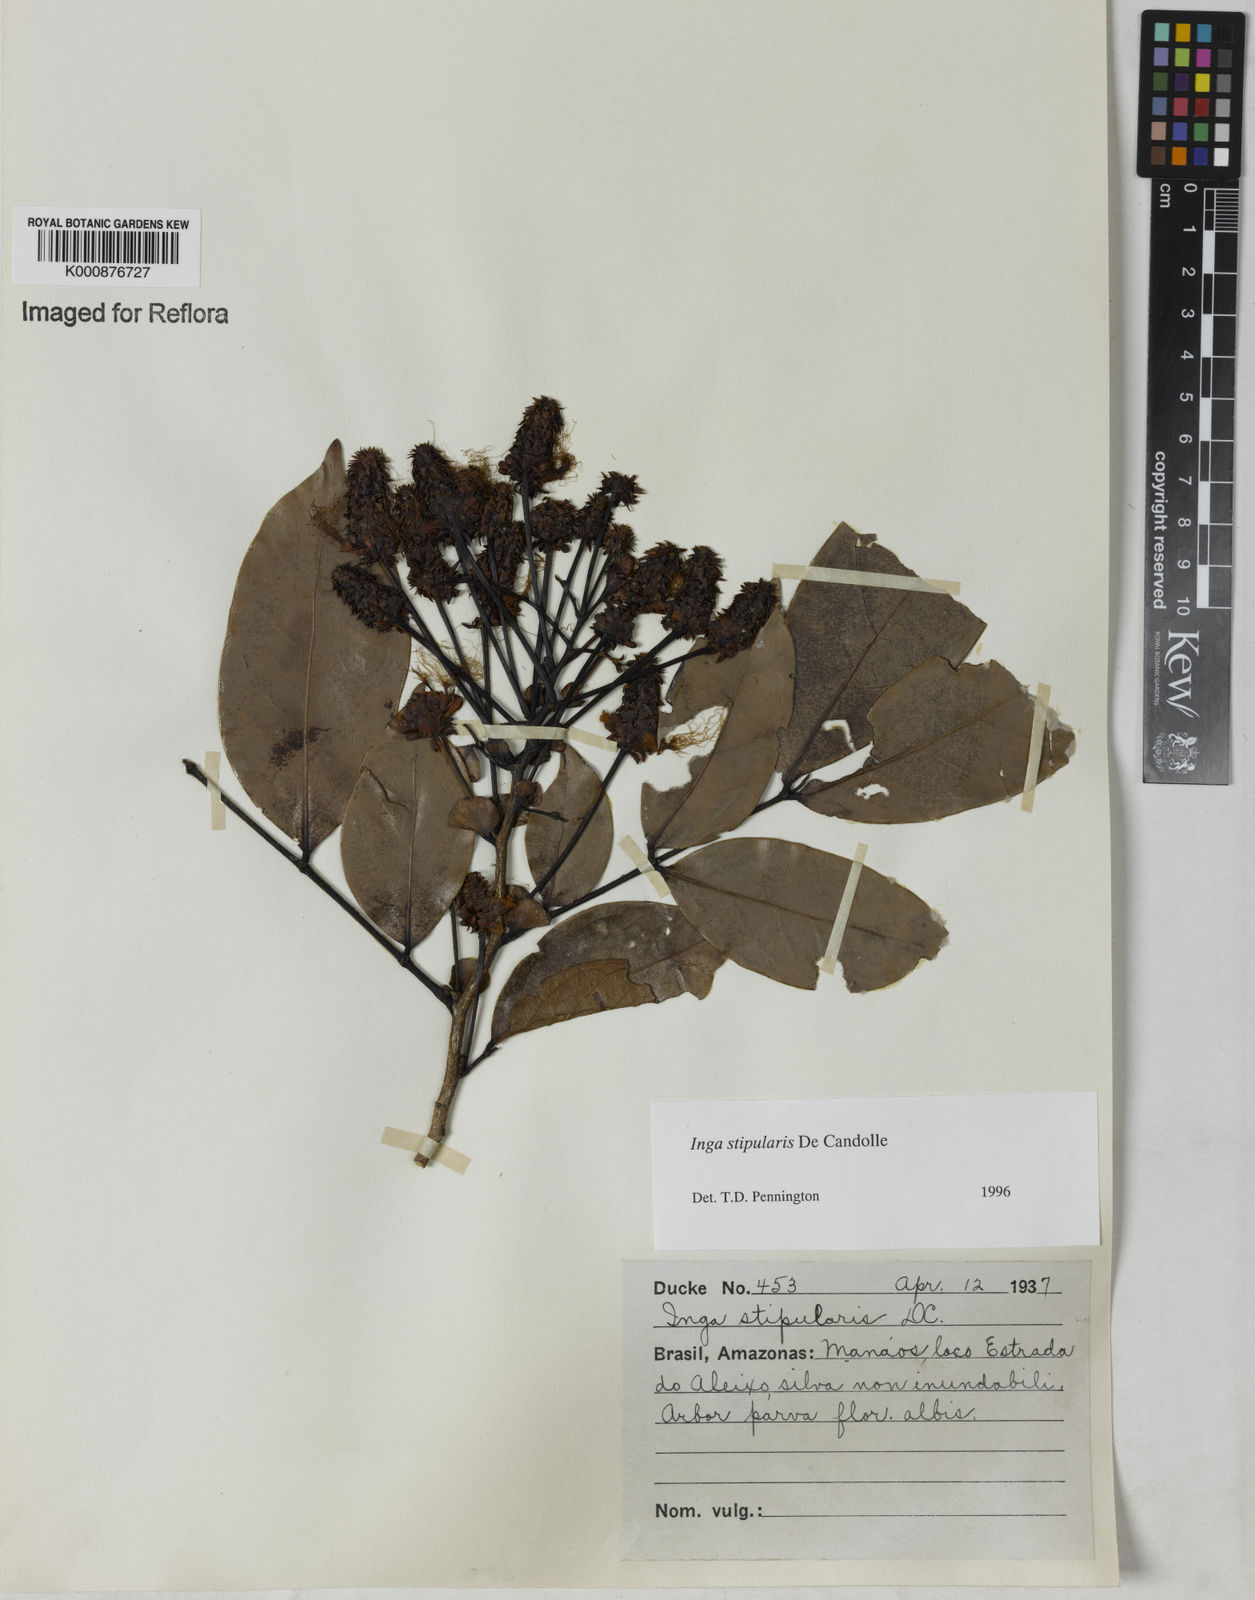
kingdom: Plantae
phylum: Tracheophyta
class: Magnoliopsida
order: Fabales
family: Fabaceae
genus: Inga
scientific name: Inga stipularis
